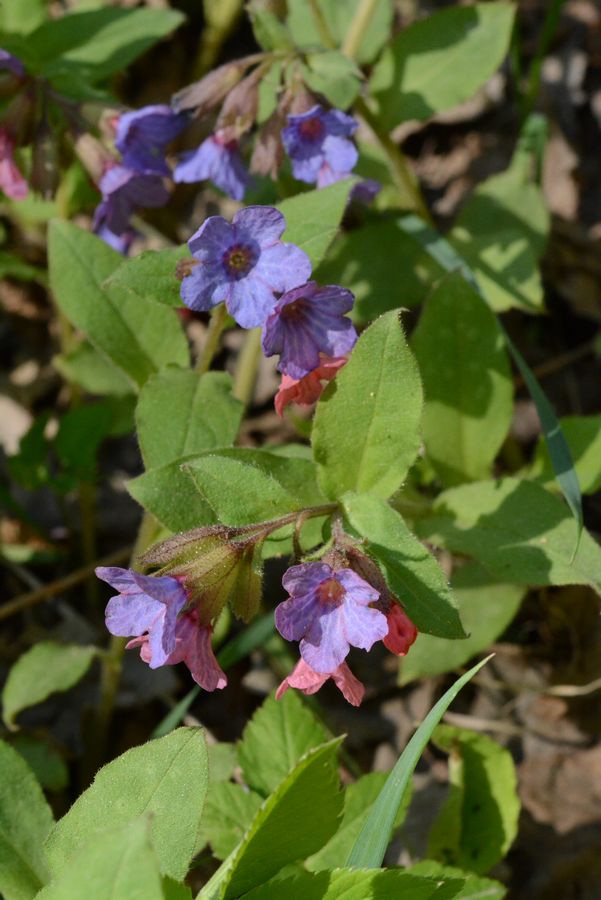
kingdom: Plantae
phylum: Tracheophyta
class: Magnoliopsida
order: Boraginales
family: Boraginaceae
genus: Pulmonaria
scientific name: Pulmonaria obscura
